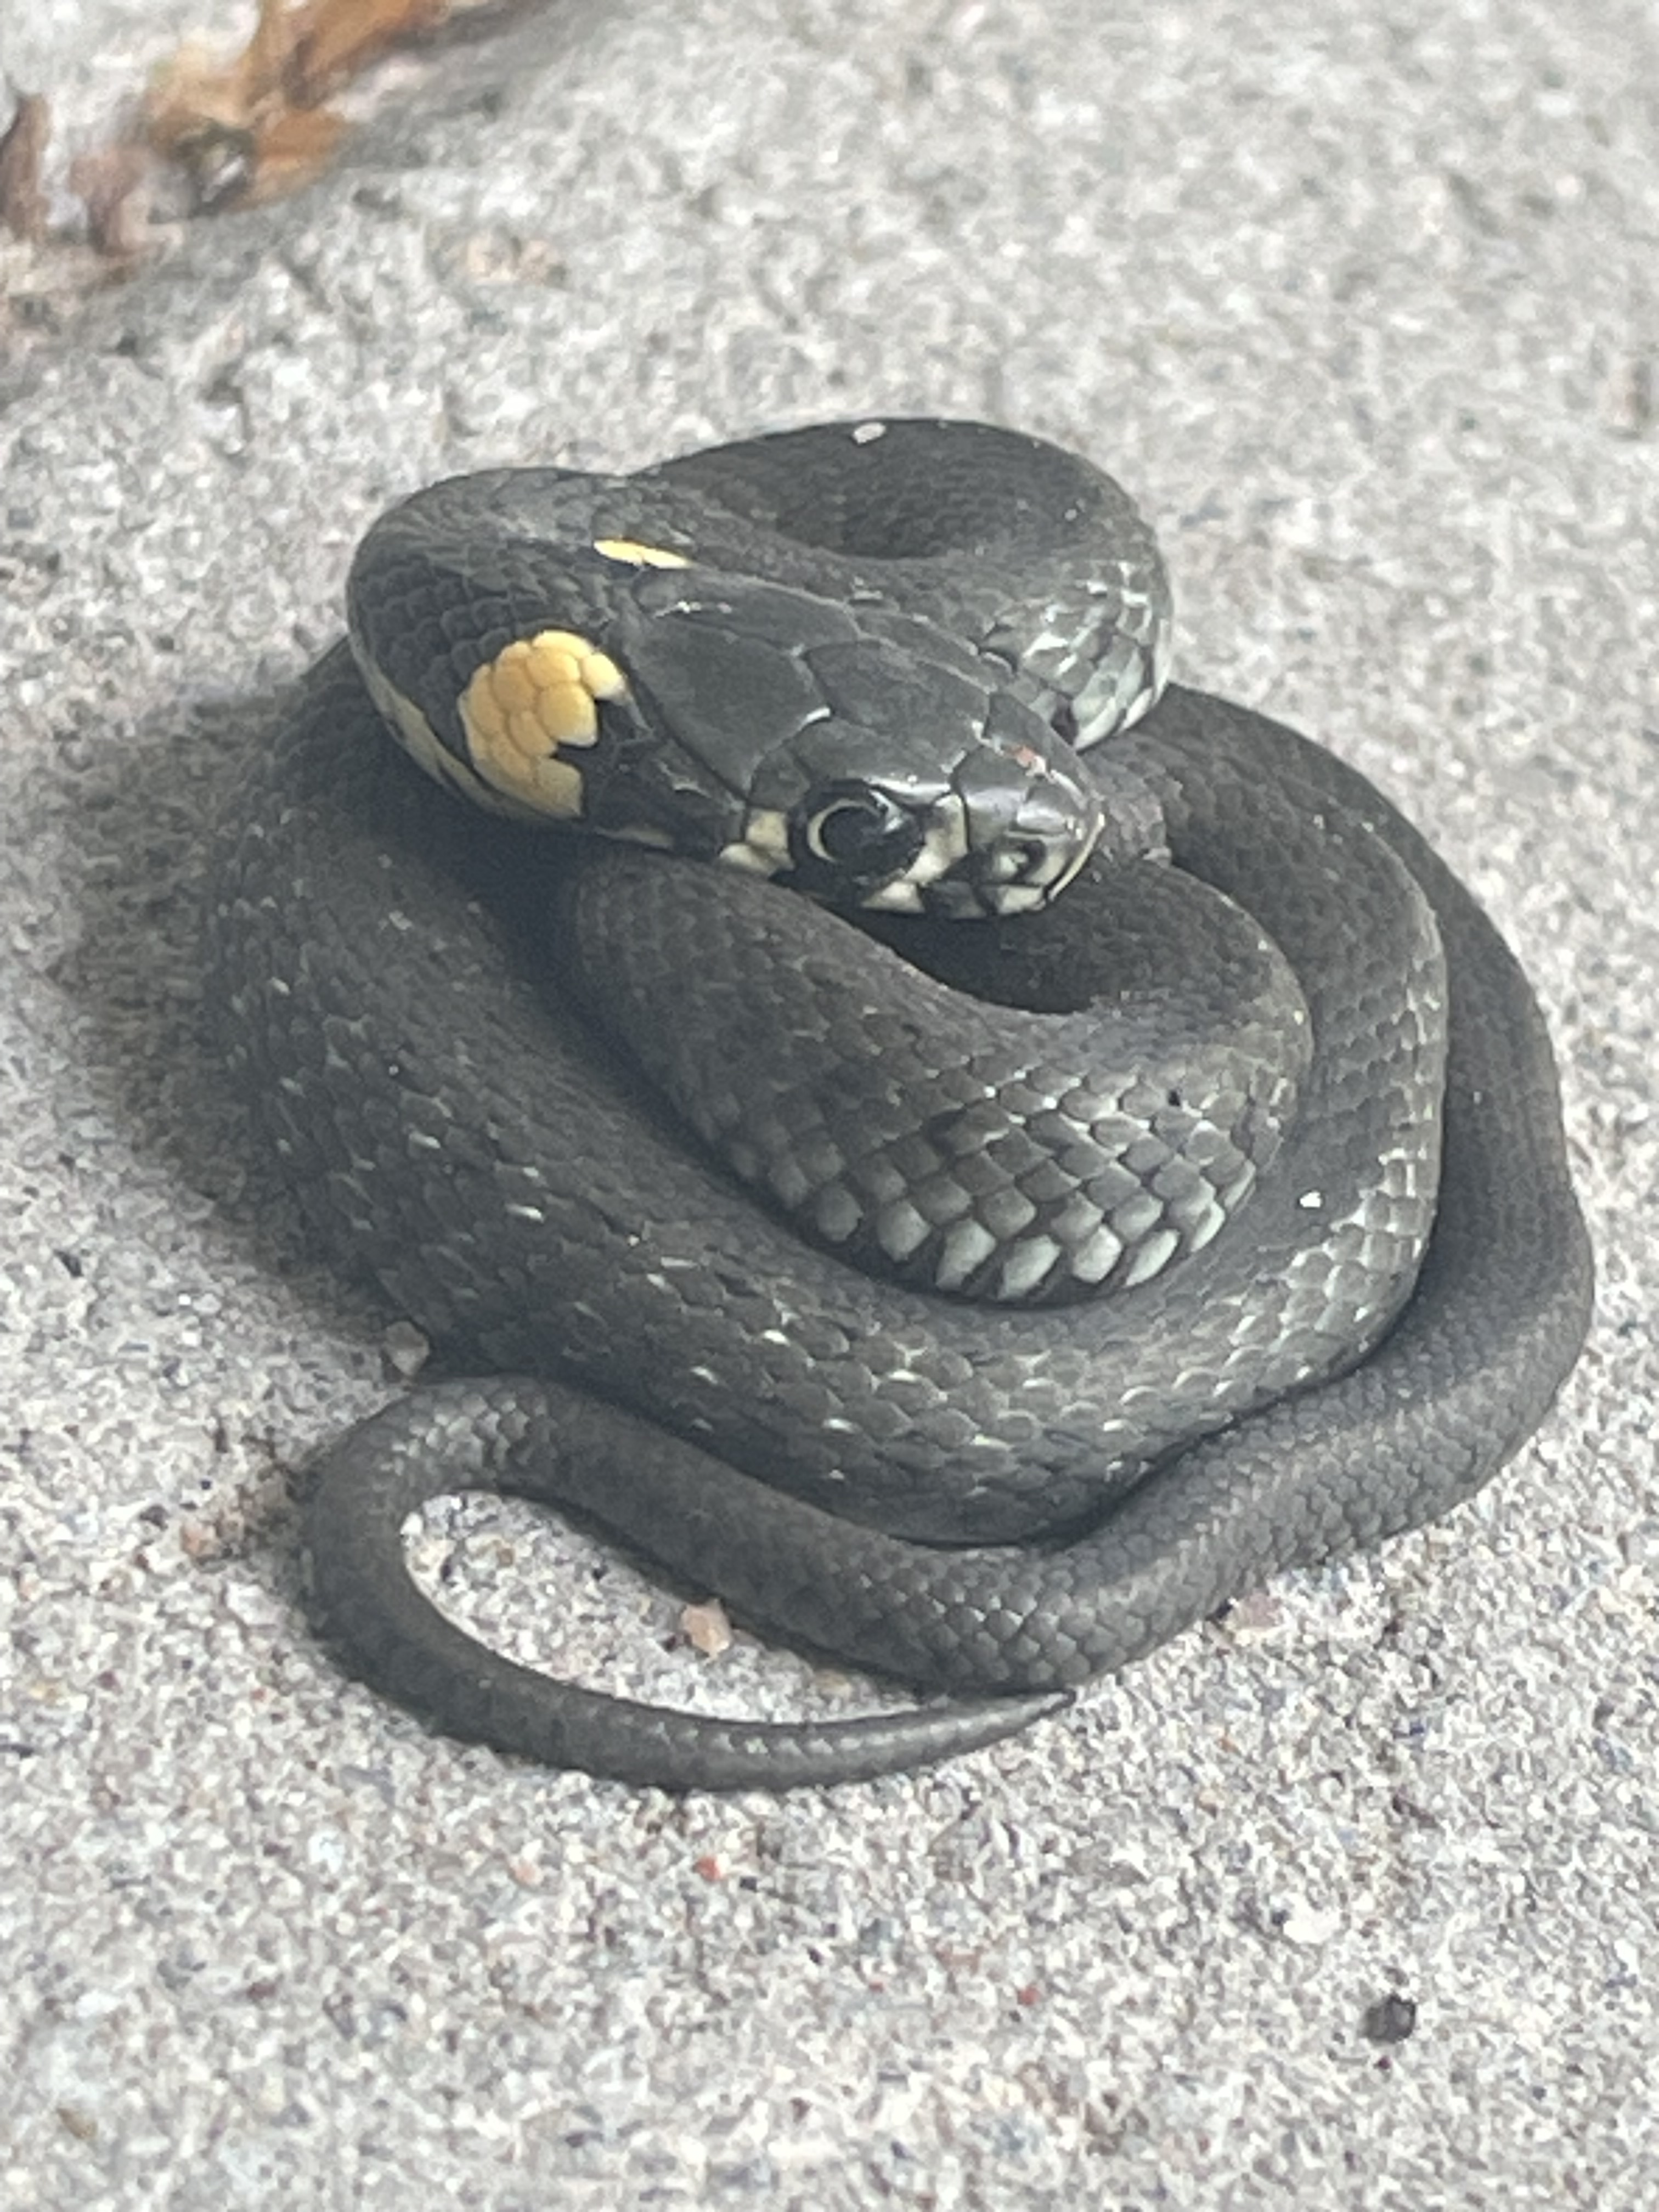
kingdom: Animalia
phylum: Chordata
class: Squamata
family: Colubridae
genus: Natrix
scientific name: Natrix natrix
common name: Grass snake
